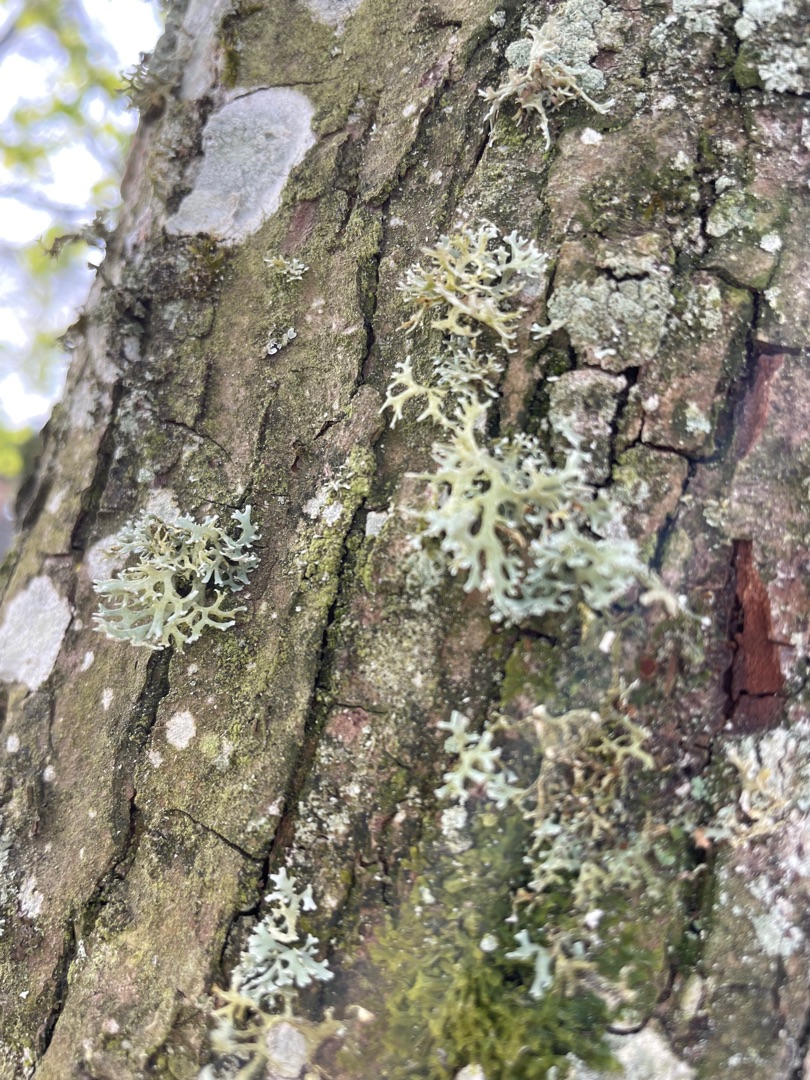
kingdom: Fungi
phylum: Ascomycota
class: Lecanoromycetes
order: Lecanorales
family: Parmeliaceae
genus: Evernia
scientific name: Evernia prunastri
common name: Almindelig slåenlav
